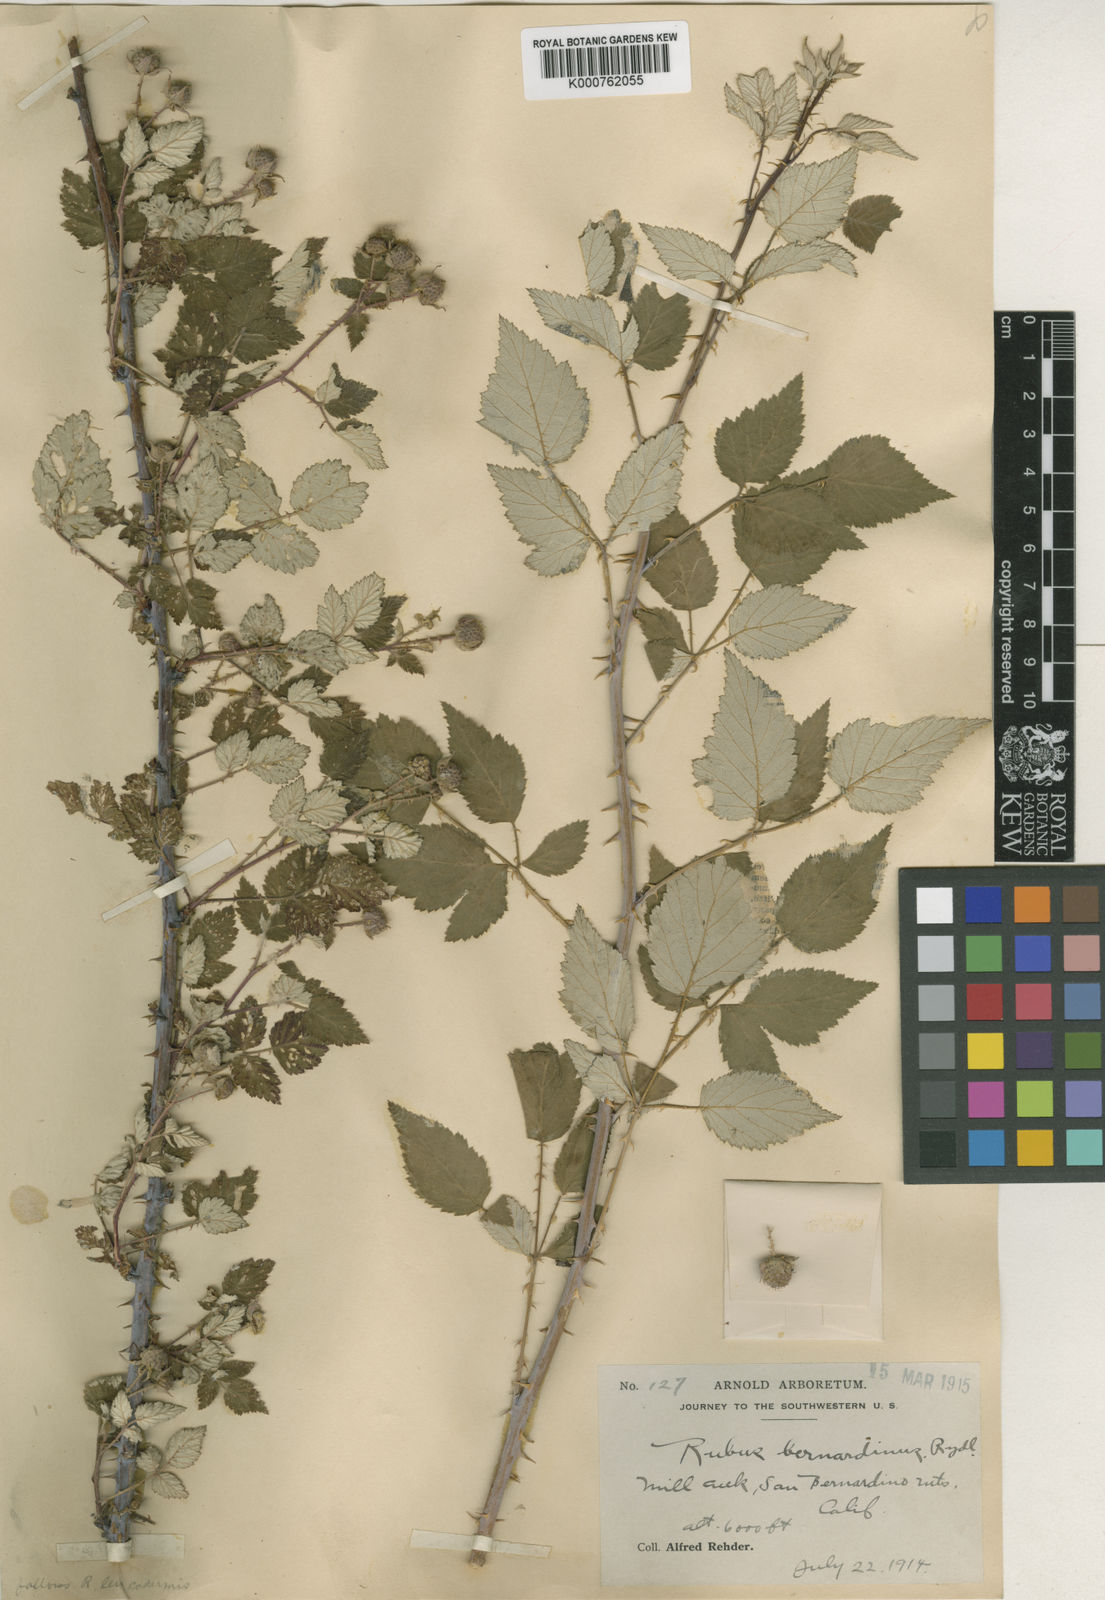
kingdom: Plantae
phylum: Tracheophyta
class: Magnoliopsida
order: Rosales
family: Rosaceae
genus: Rubus
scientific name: Rubus leucodermis
